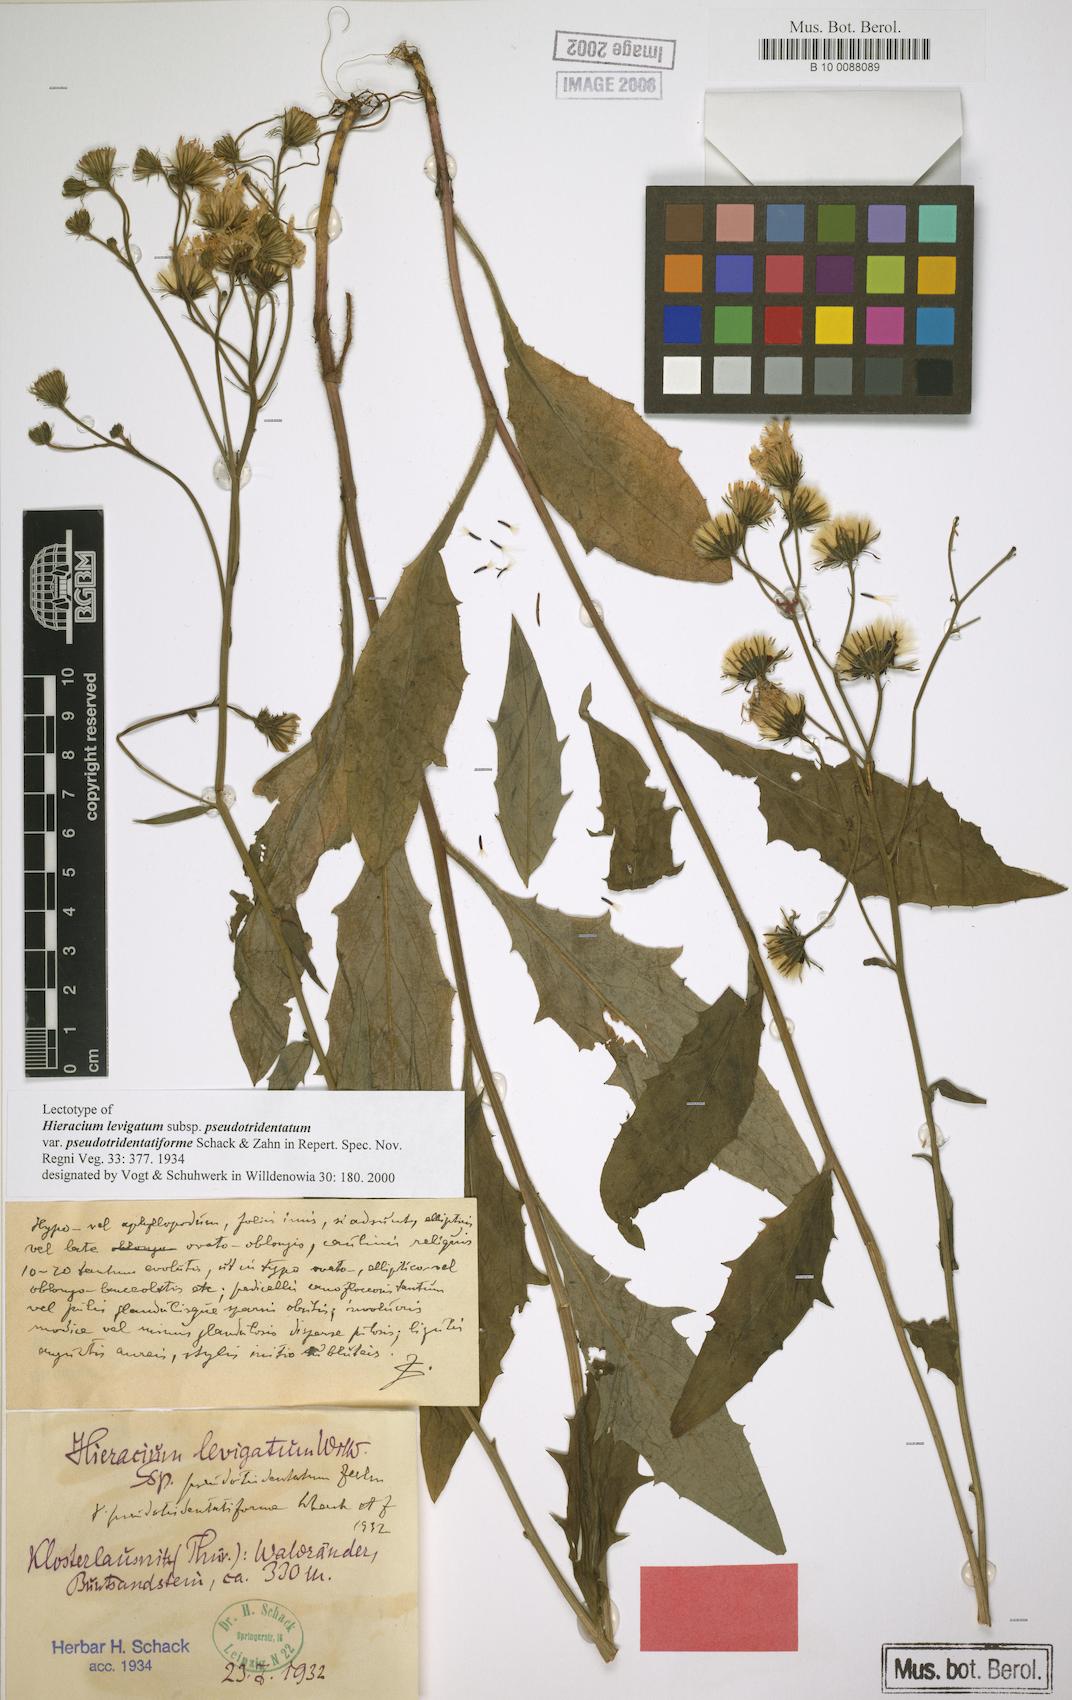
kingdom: Plantae
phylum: Tracheophyta
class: Magnoliopsida
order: Asterales
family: Asteraceae
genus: Hieracium
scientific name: Hieracium laevigatum
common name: Smooth hawkweed
